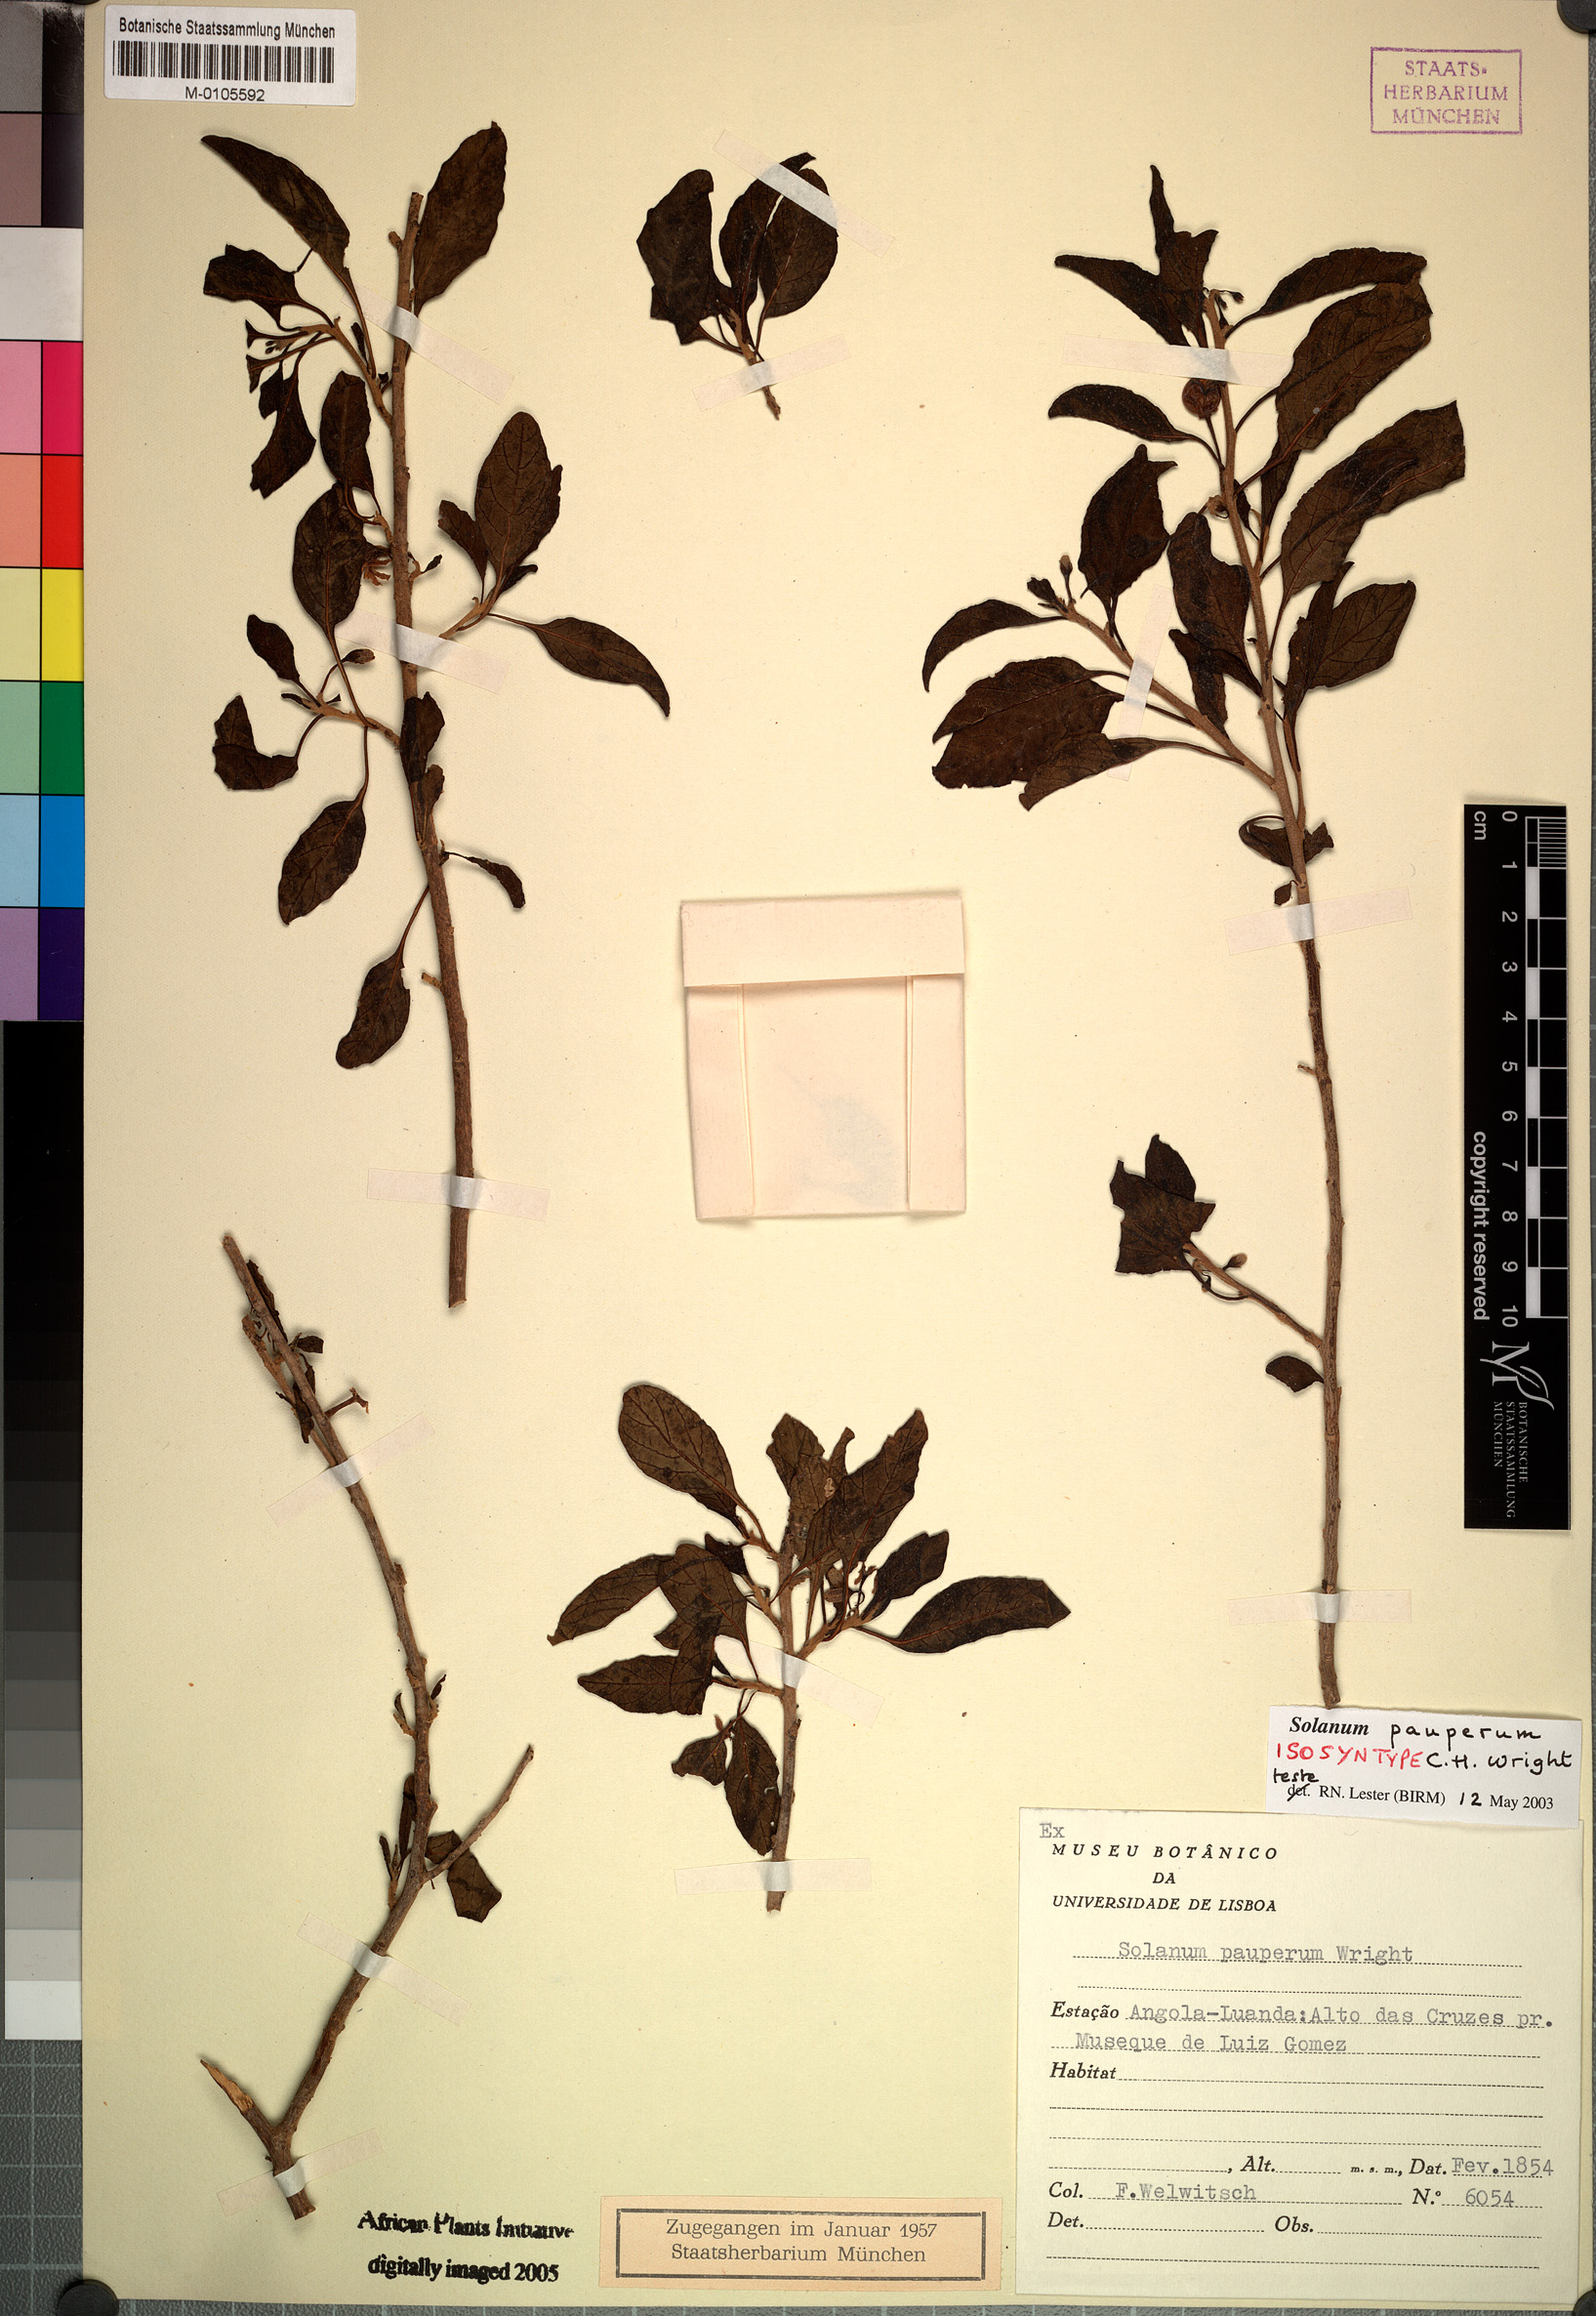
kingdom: Plantae
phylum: Tracheophyta
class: Magnoliopsida
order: Solanales
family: Solanaceae
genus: Solanum
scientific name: Solanum anomalum
